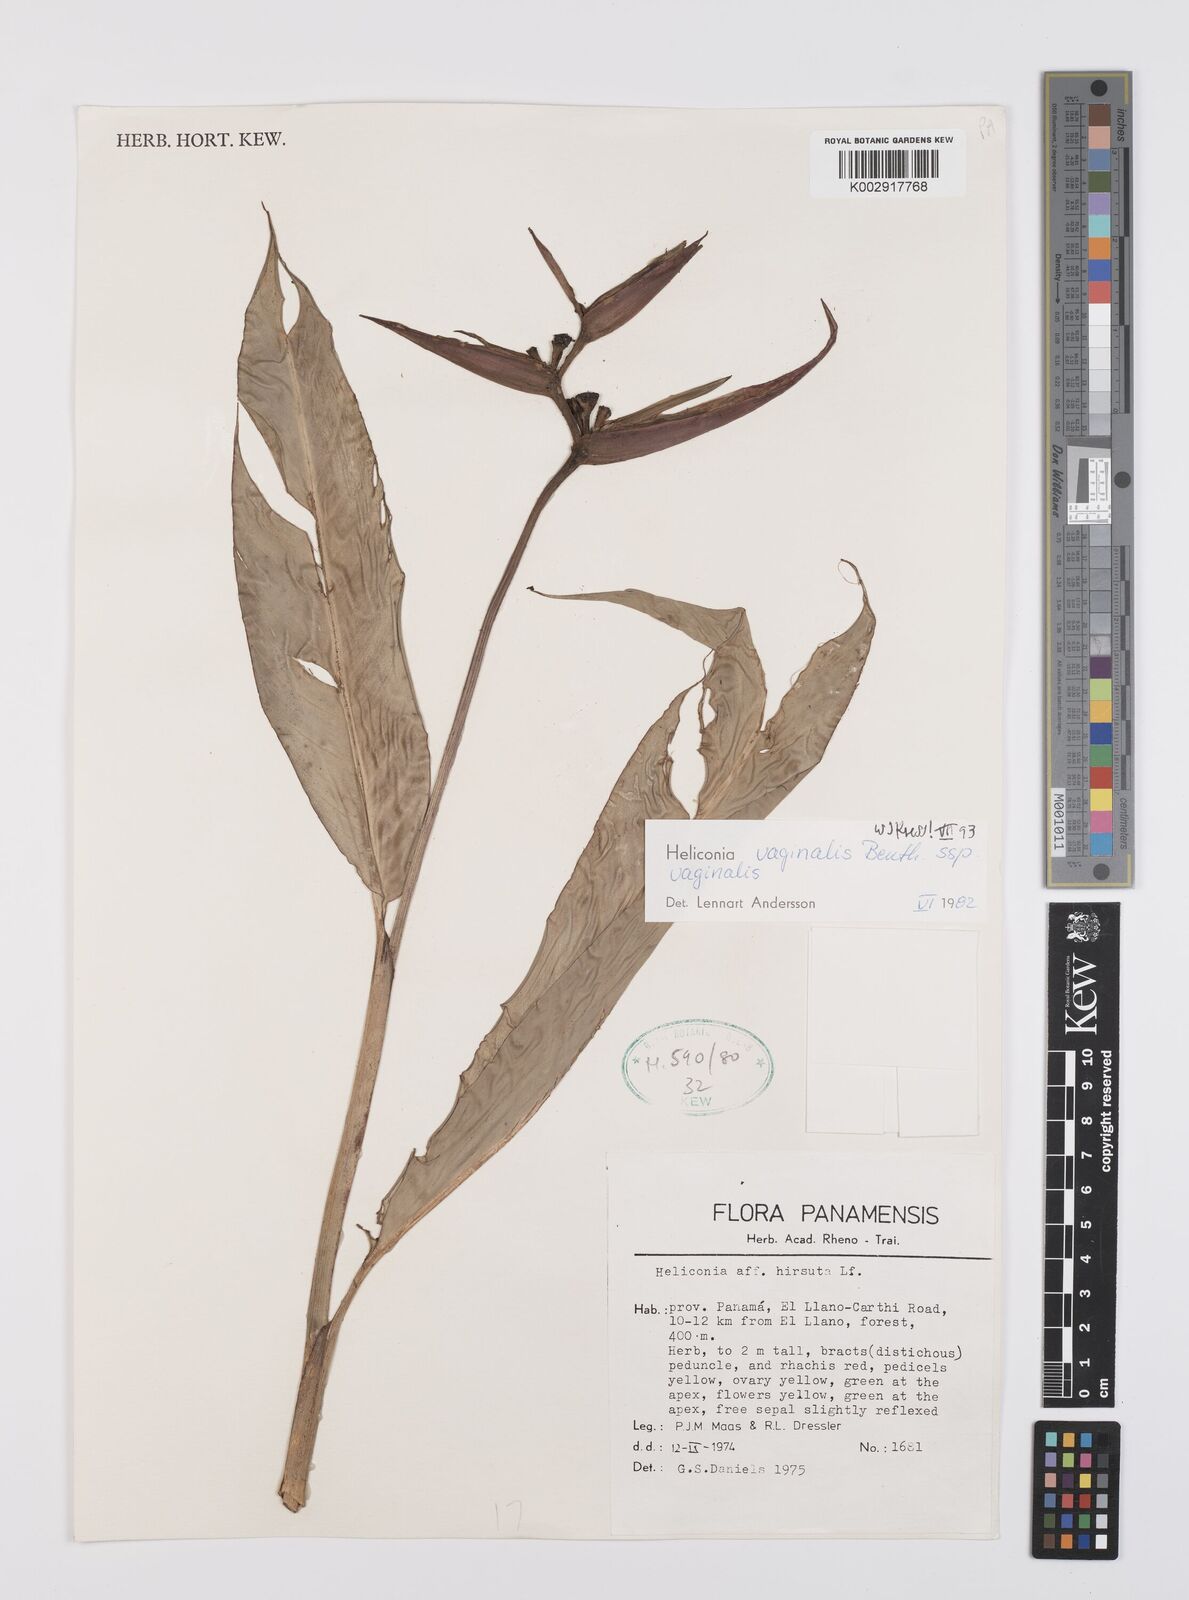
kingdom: Plantae
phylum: Tracheophyta
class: Liliopsida
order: Zingiberales
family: Heliconiaceae
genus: Heliconia
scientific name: Heliconia vaginalis
